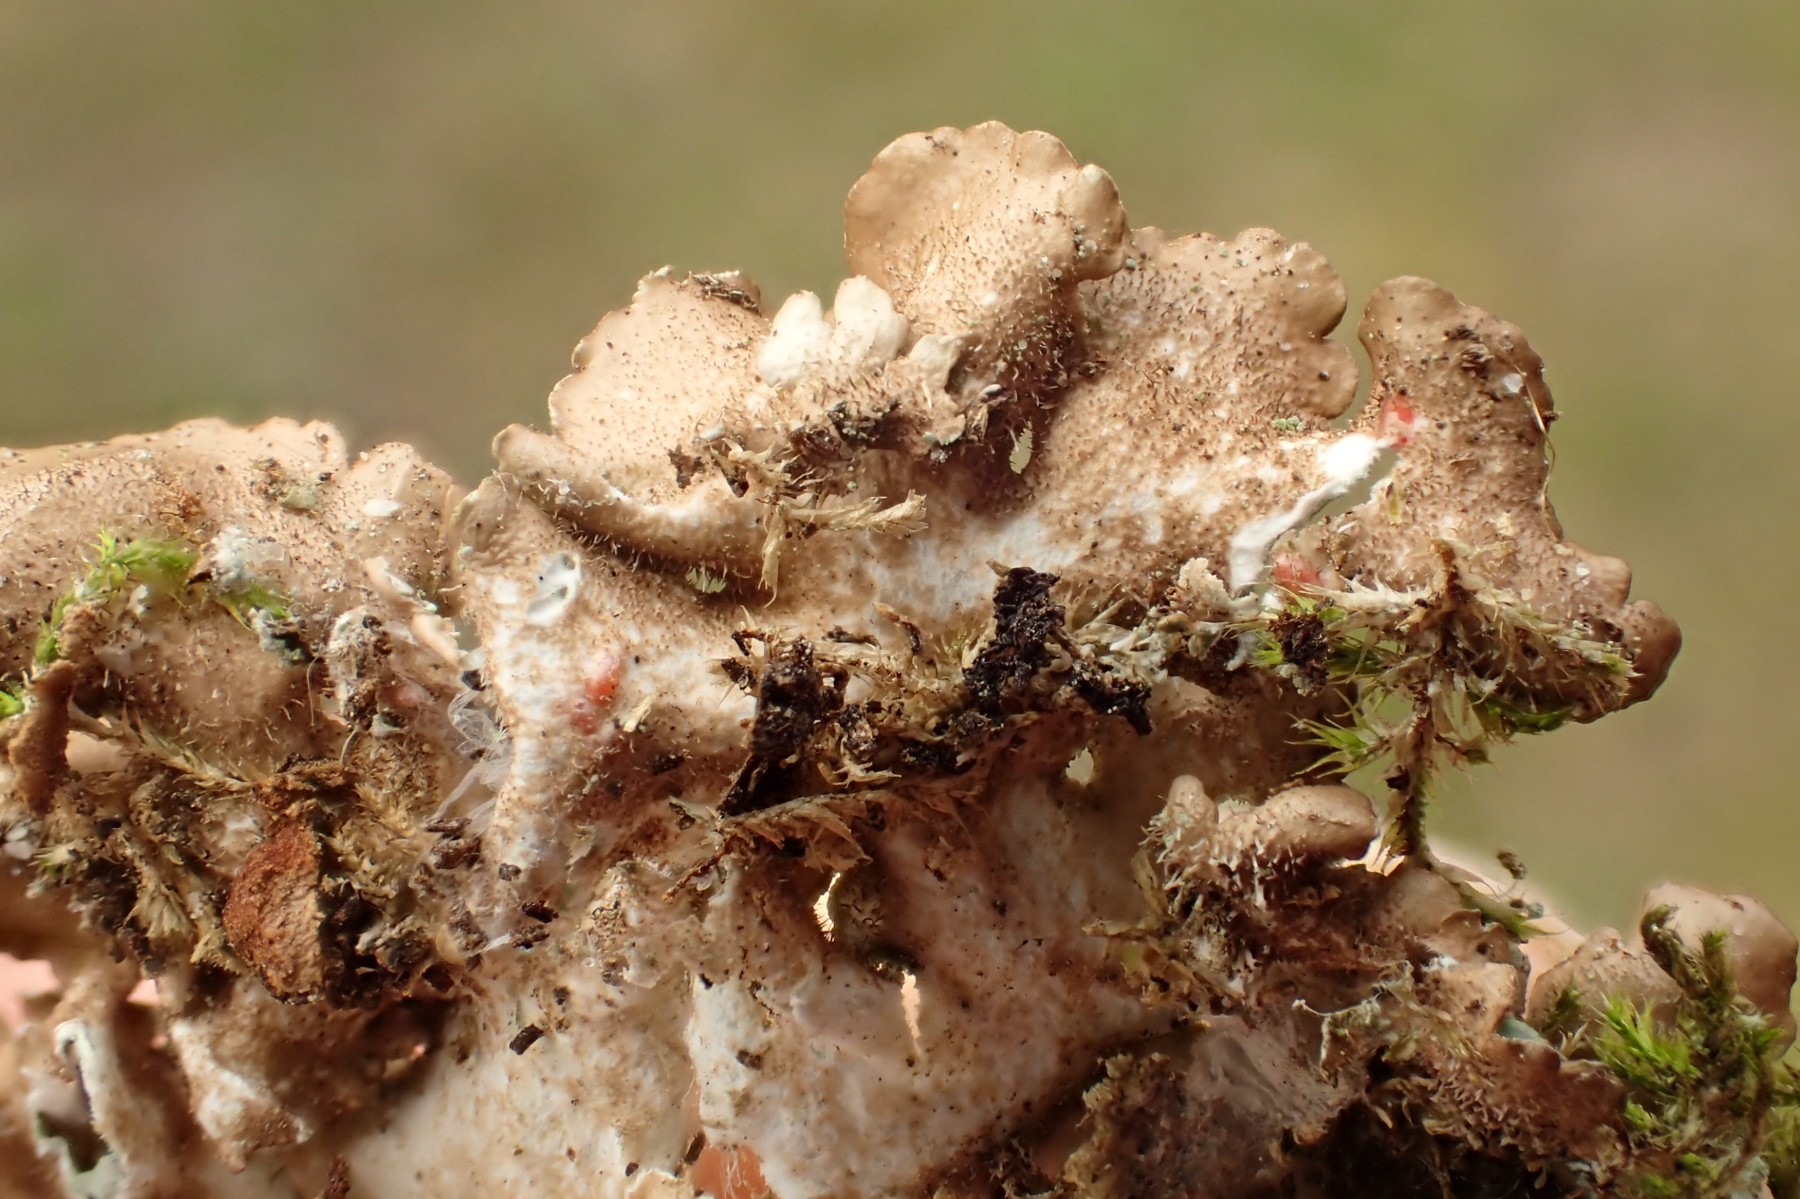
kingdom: Fungi
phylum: Ascomycota
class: Lecanoromycetes
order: Lecanorales
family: Parmeliaceae
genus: Punctelia
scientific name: Punctelia jeckeri
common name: randstøvet skållav
